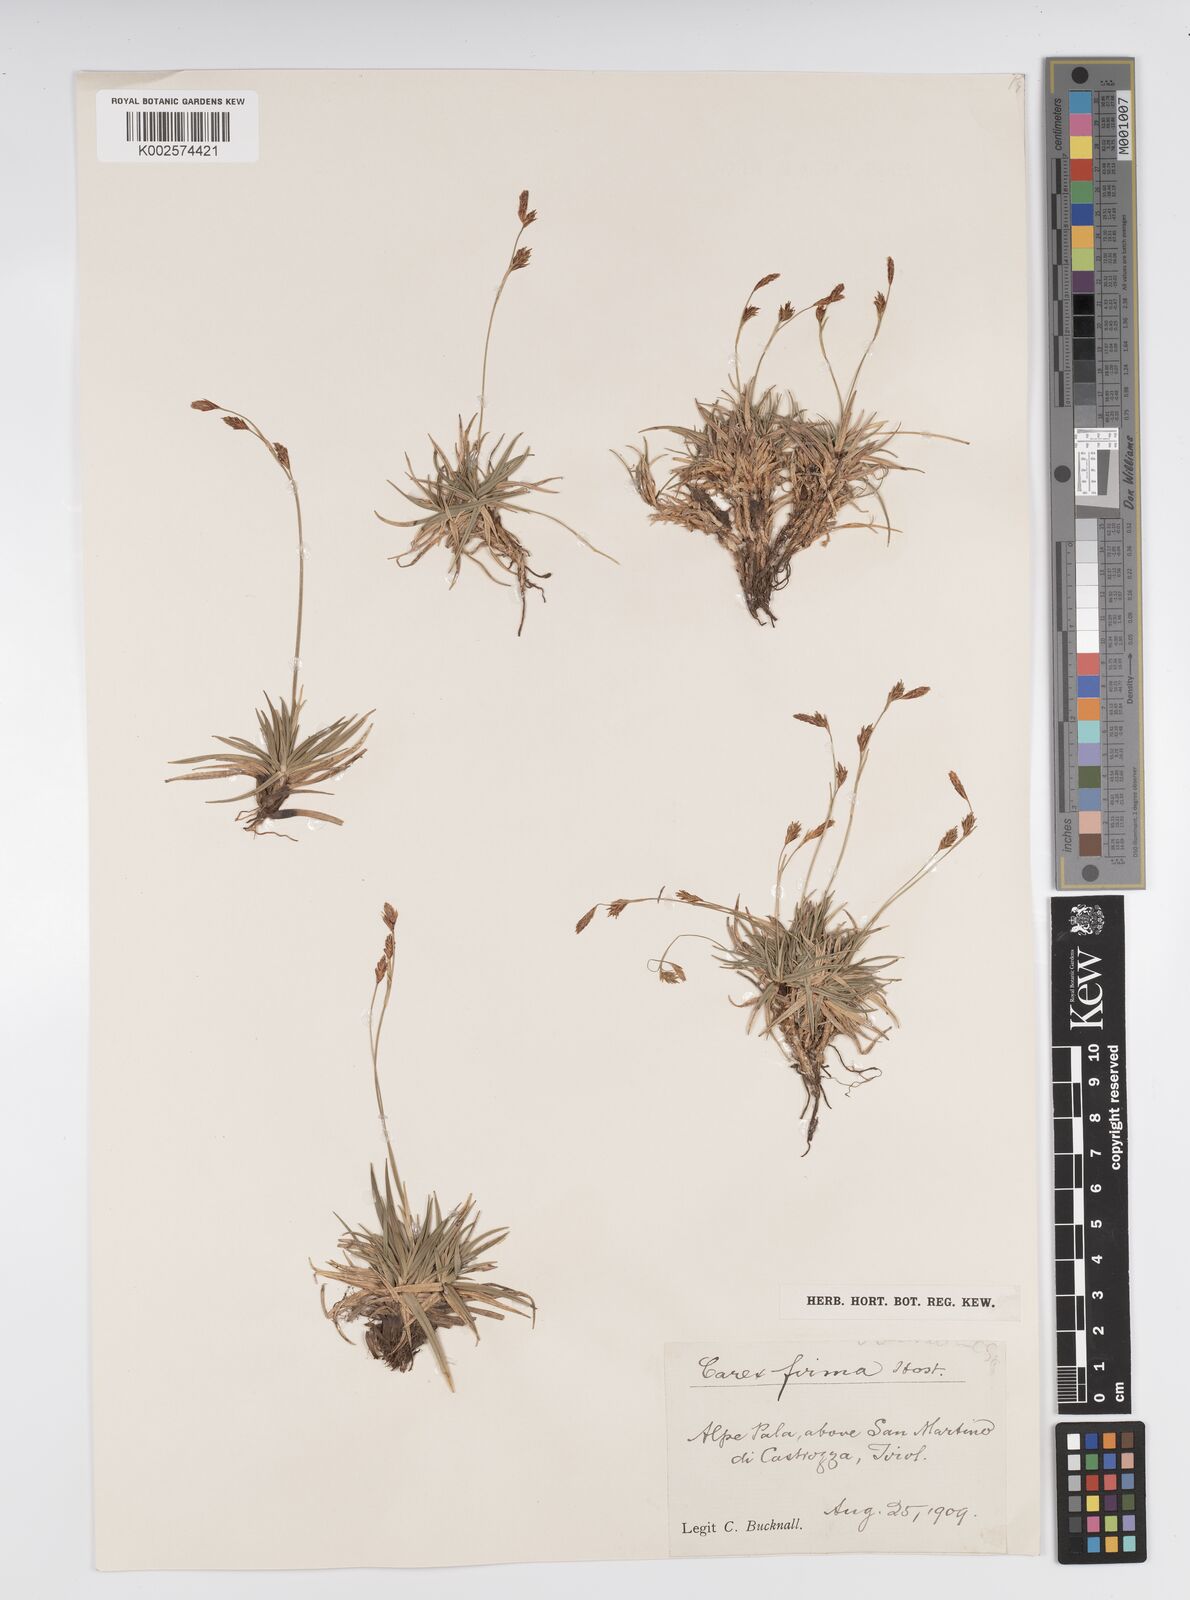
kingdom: Plantae
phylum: Tracheophyta
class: Liliopsida
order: Poales
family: Cyperaceae
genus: Carex
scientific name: Carex firma
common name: Dwarf pillow sedge
